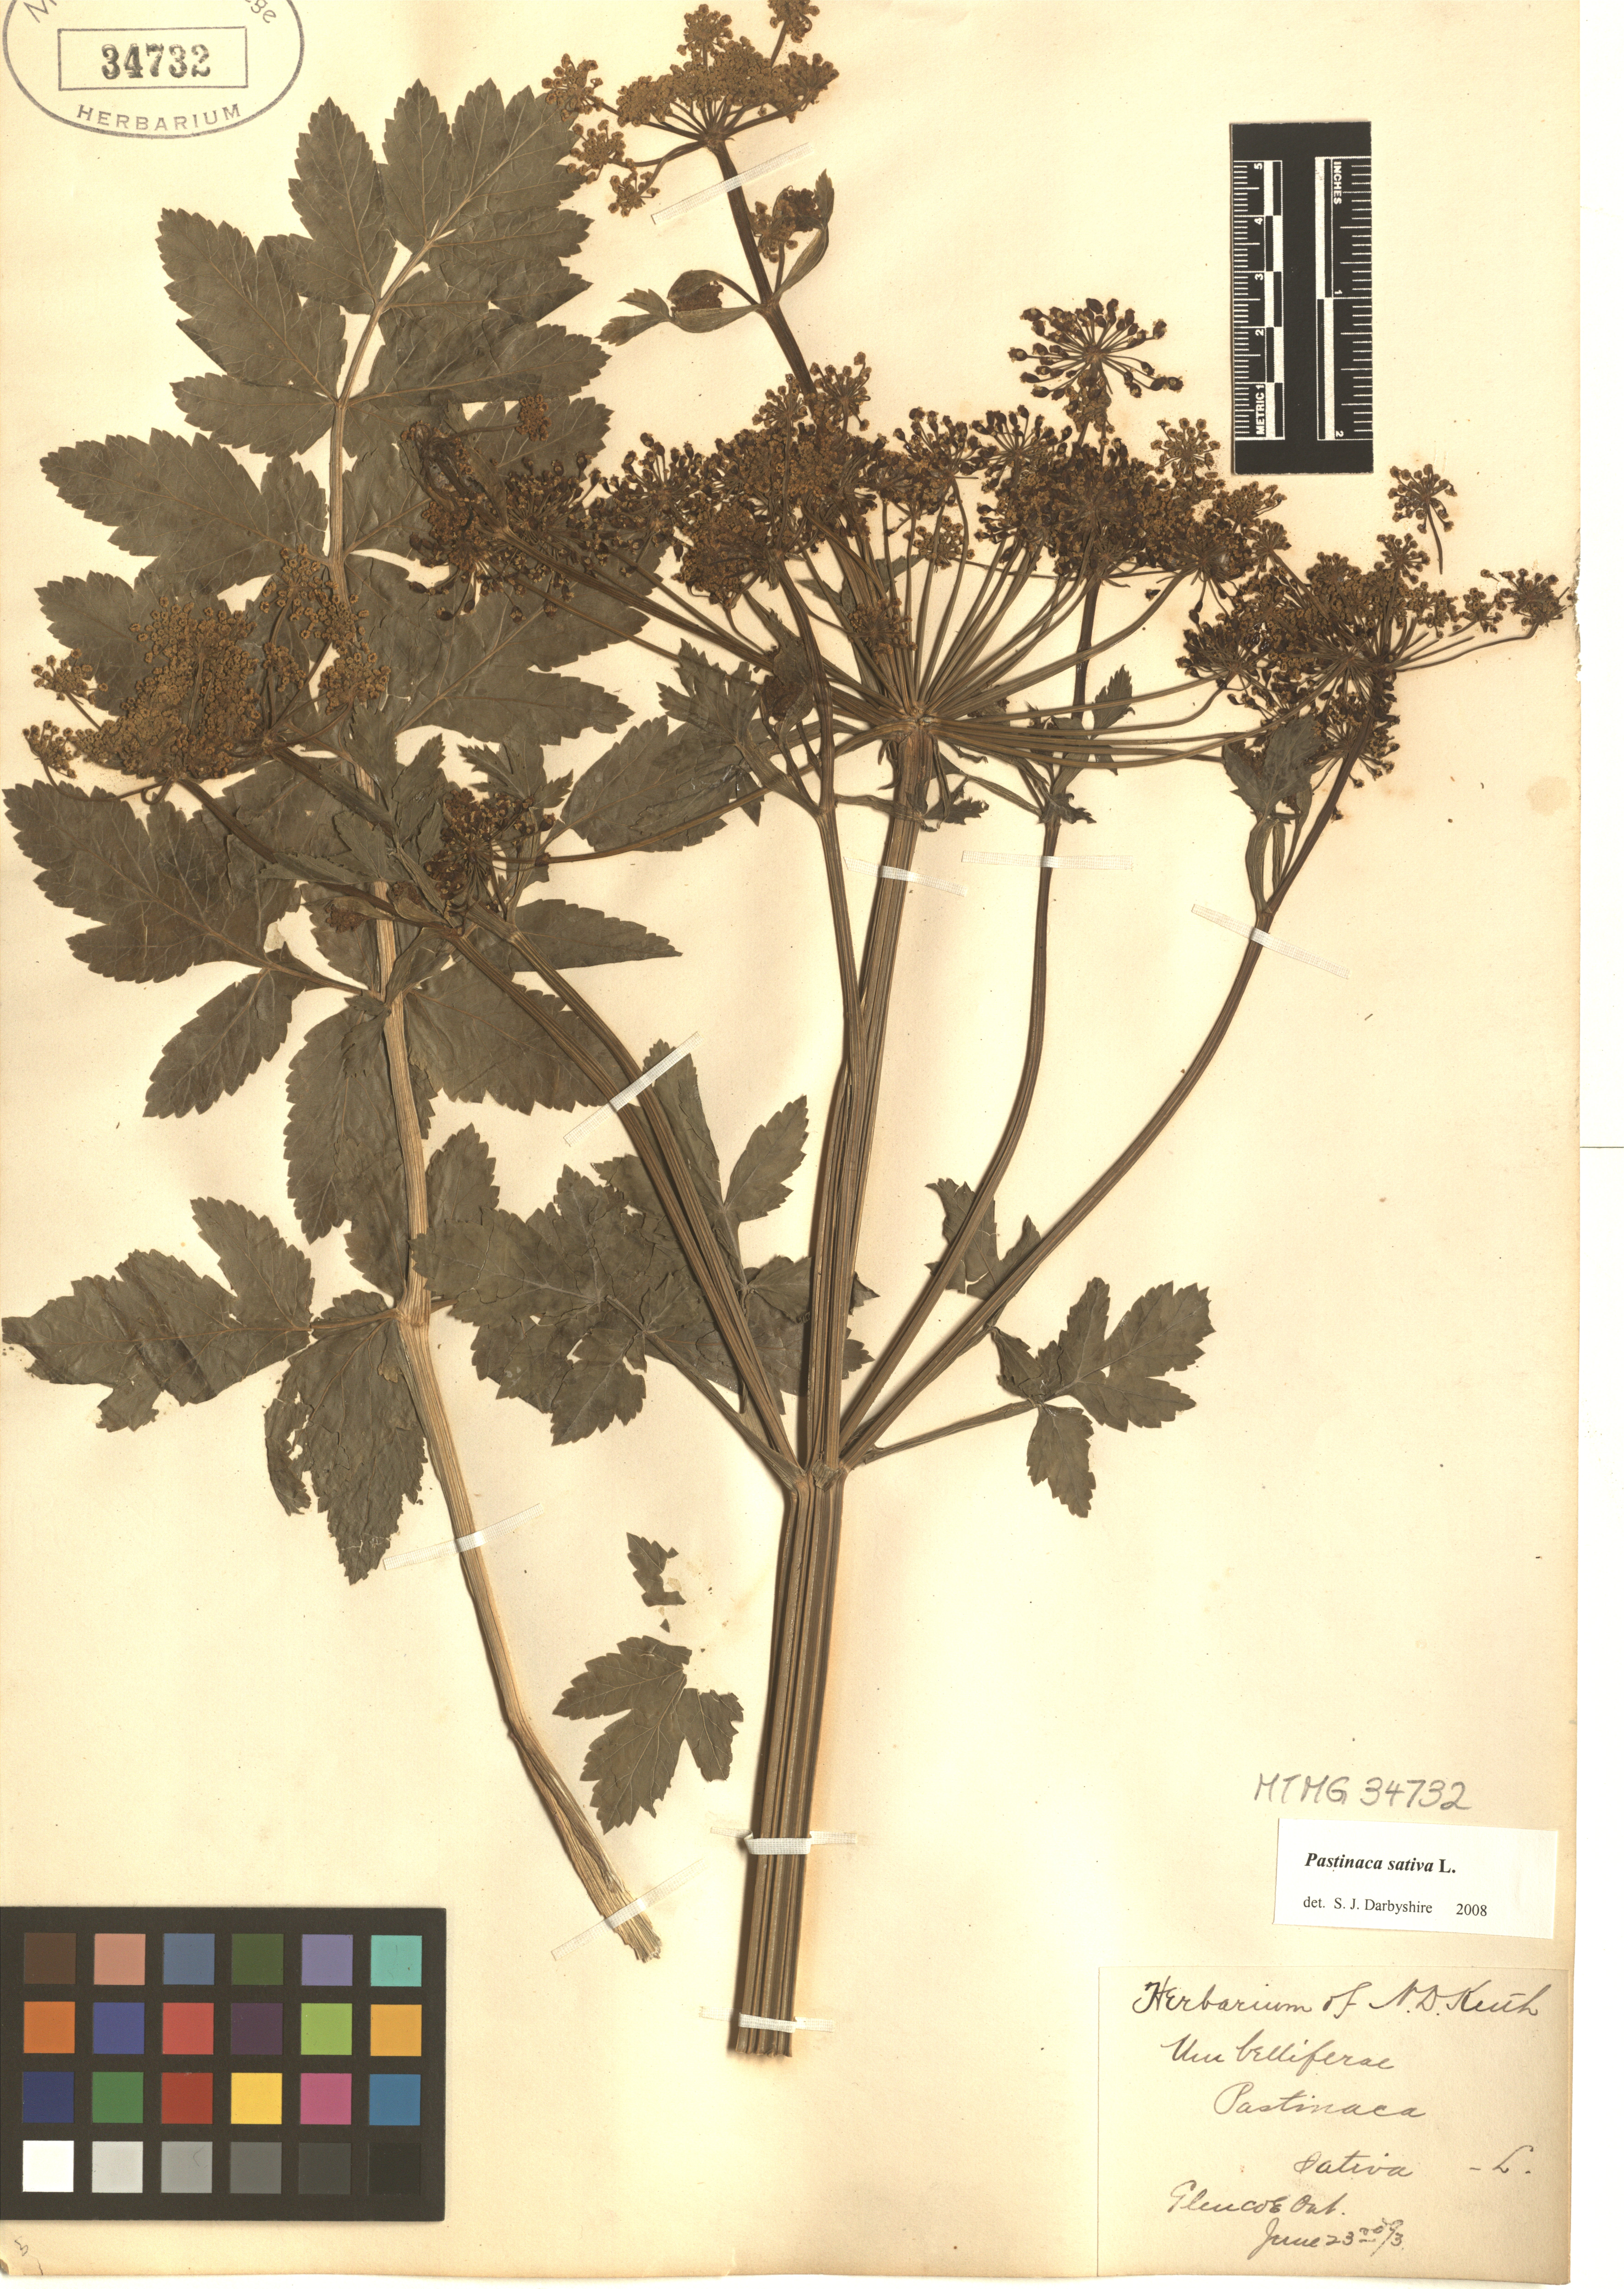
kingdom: Plantae
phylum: Tracheophyta
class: Magnoliopsida
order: Apiales
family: Apiaceae
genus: Pastinaca
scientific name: Pastinaca sativa
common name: Wild parsnip
